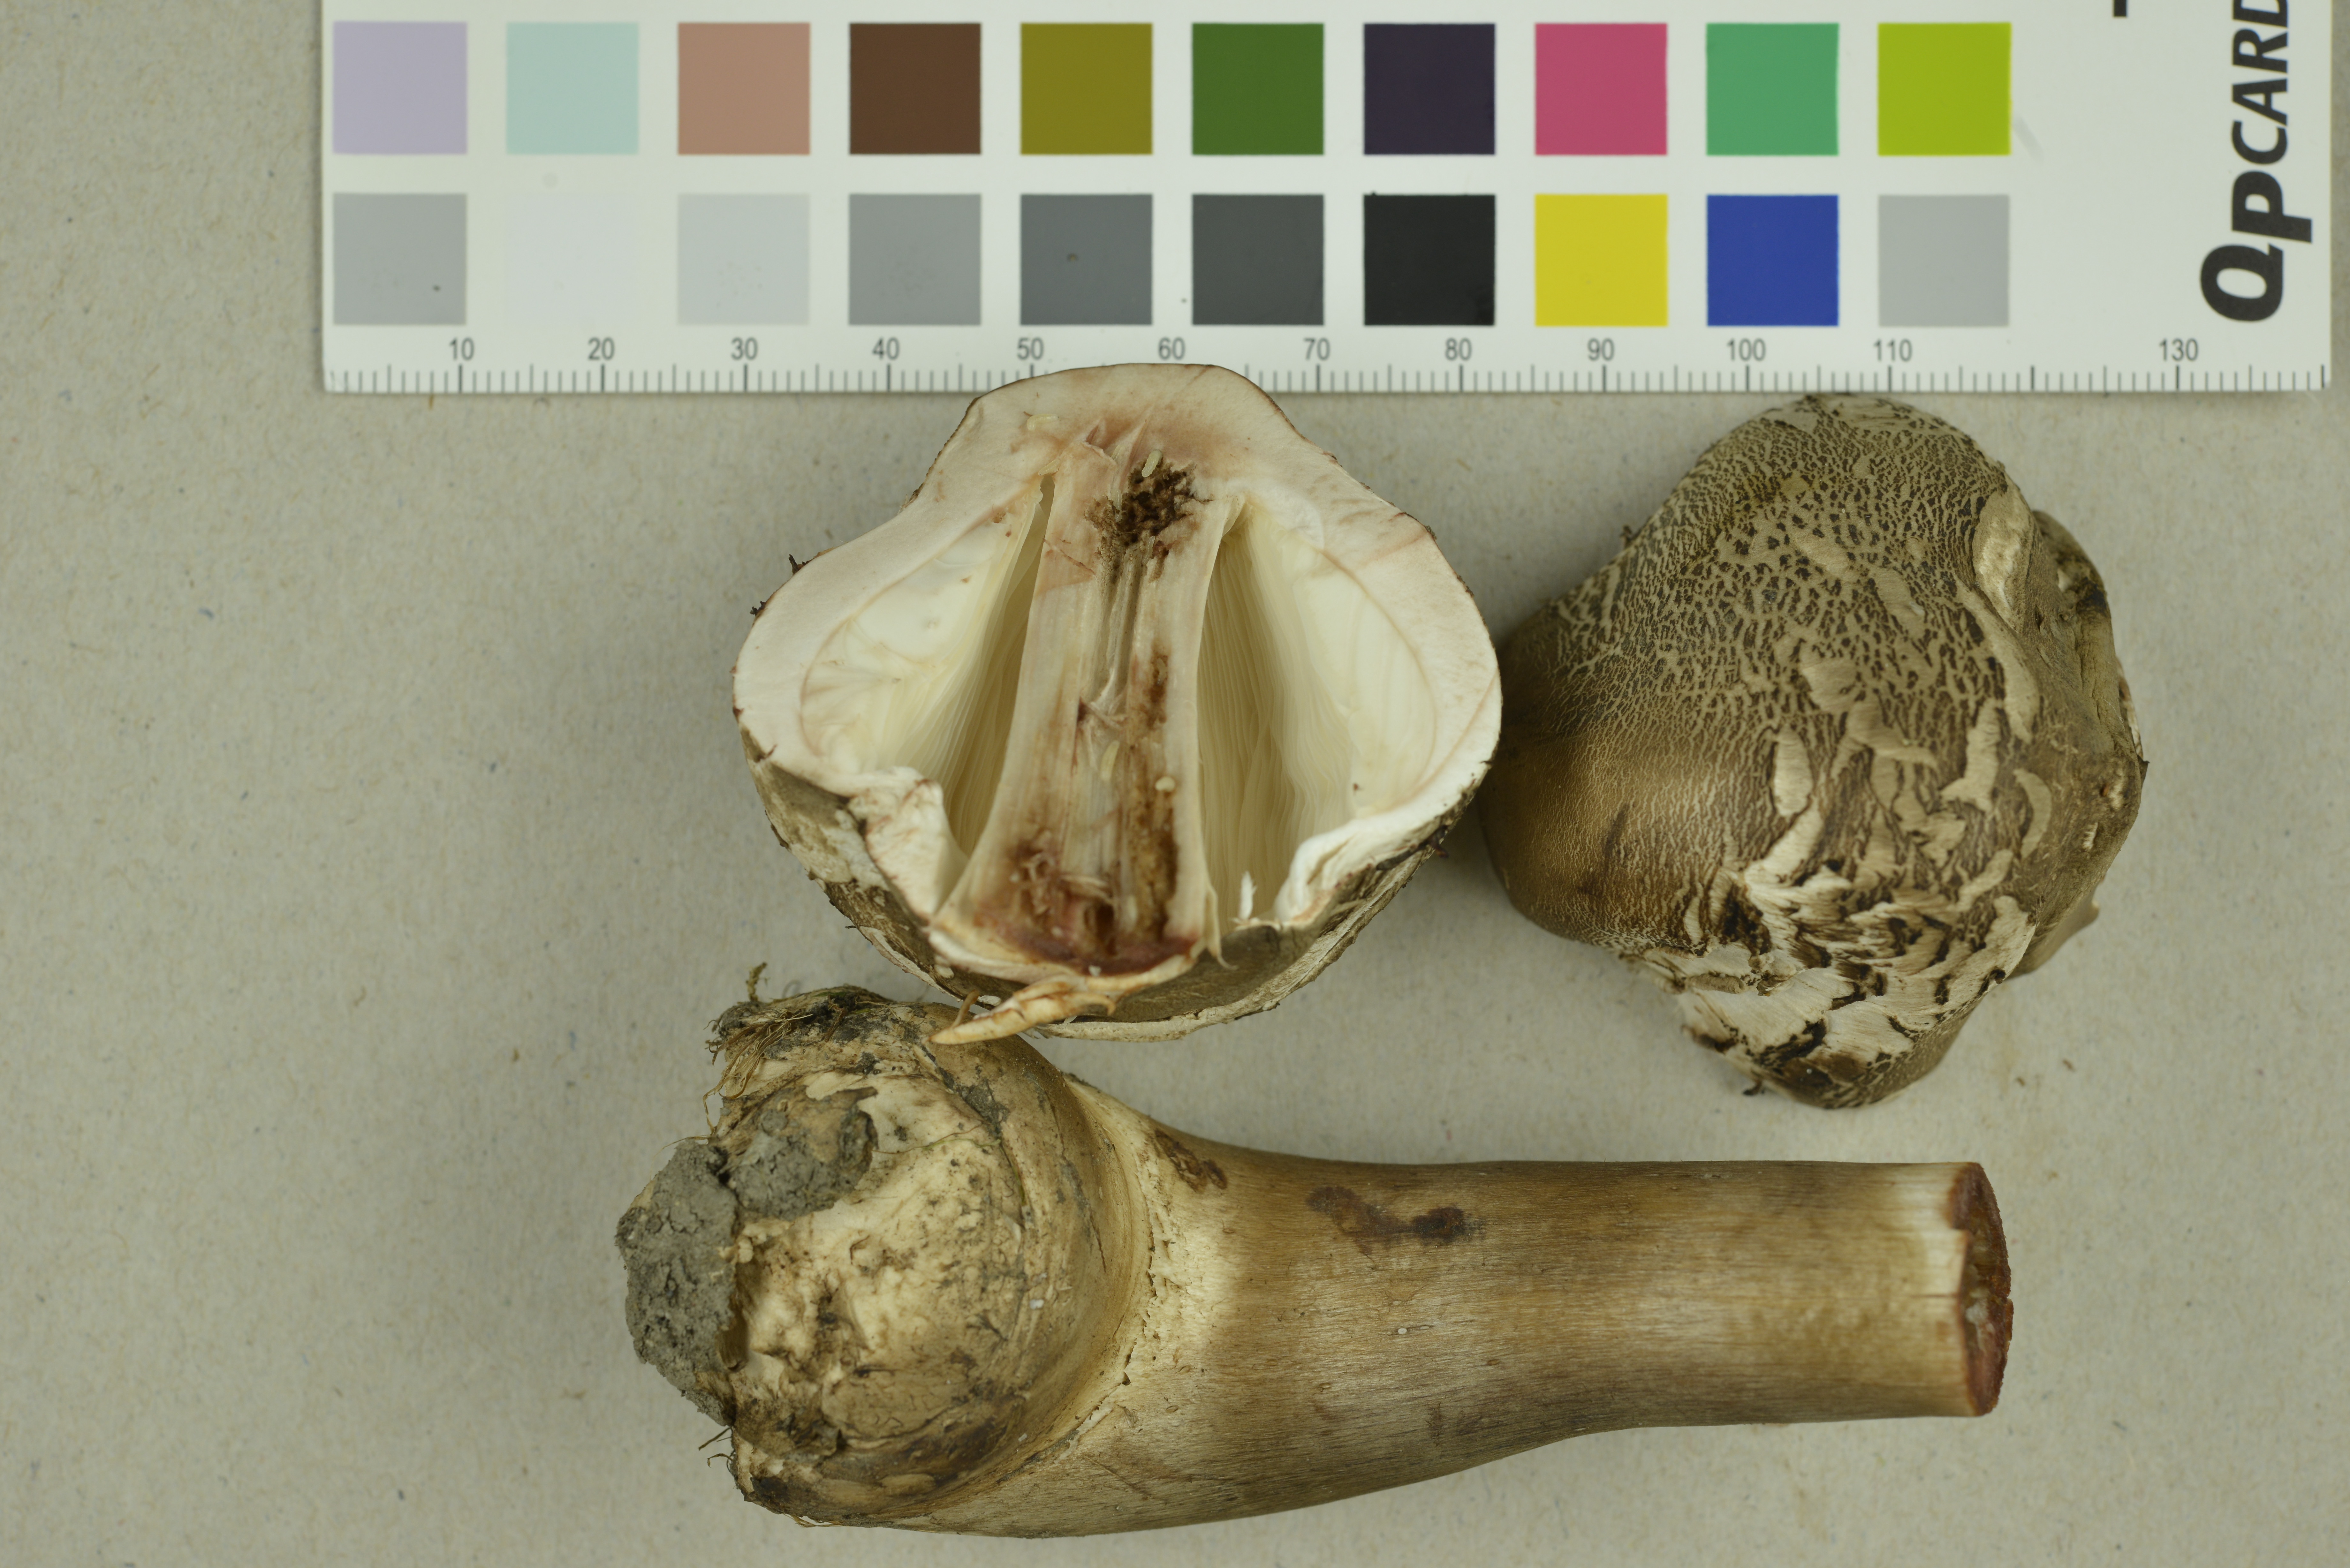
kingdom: Fungi
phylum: Basidiomycota
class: Agaricomycetes
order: Agaricales
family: Agaricaceae
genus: Leucoagaricus
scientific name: Leucoagaricus nympharum
